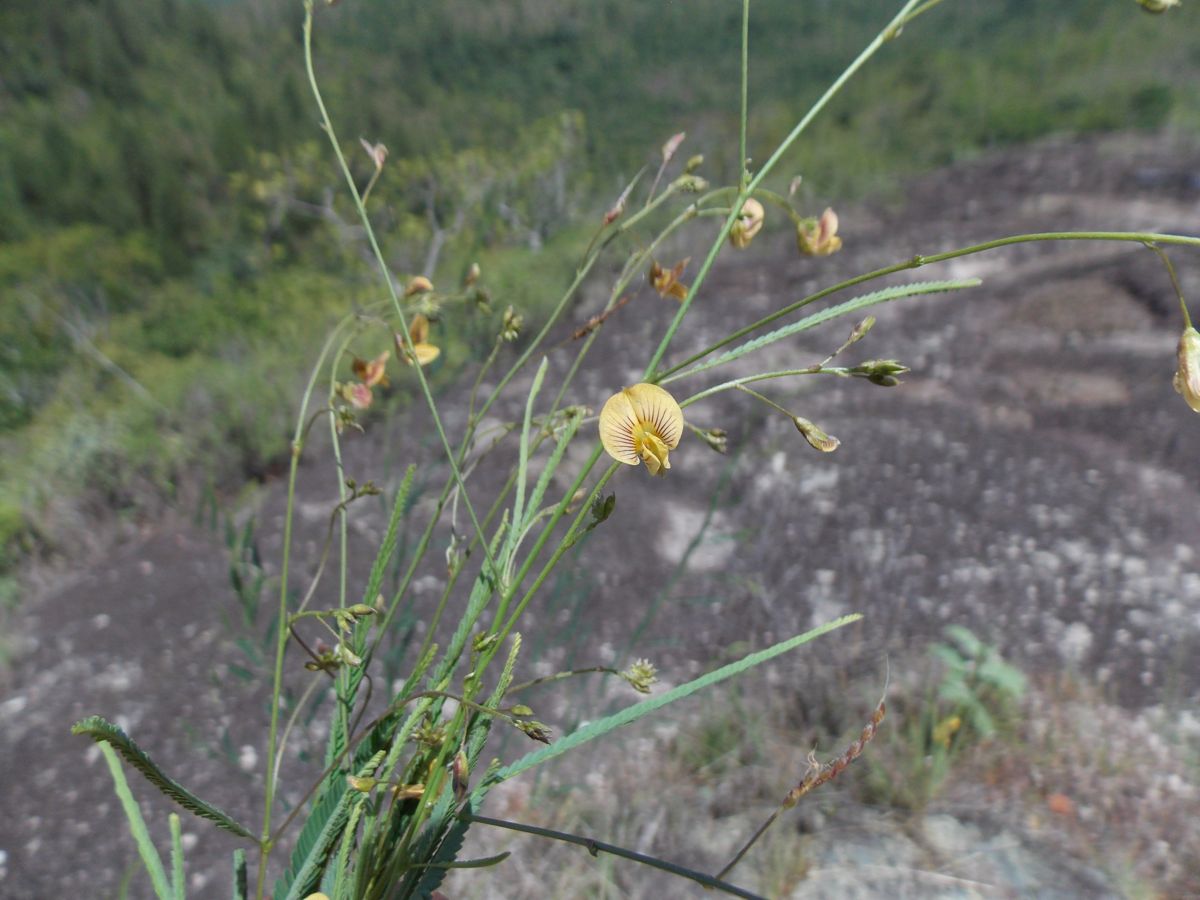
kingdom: Plantae
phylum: Tracheophyta
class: Magnoliopsida
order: Fabales
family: Fabaceae
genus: Ctenodon
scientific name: Ctenodon paniculatus
